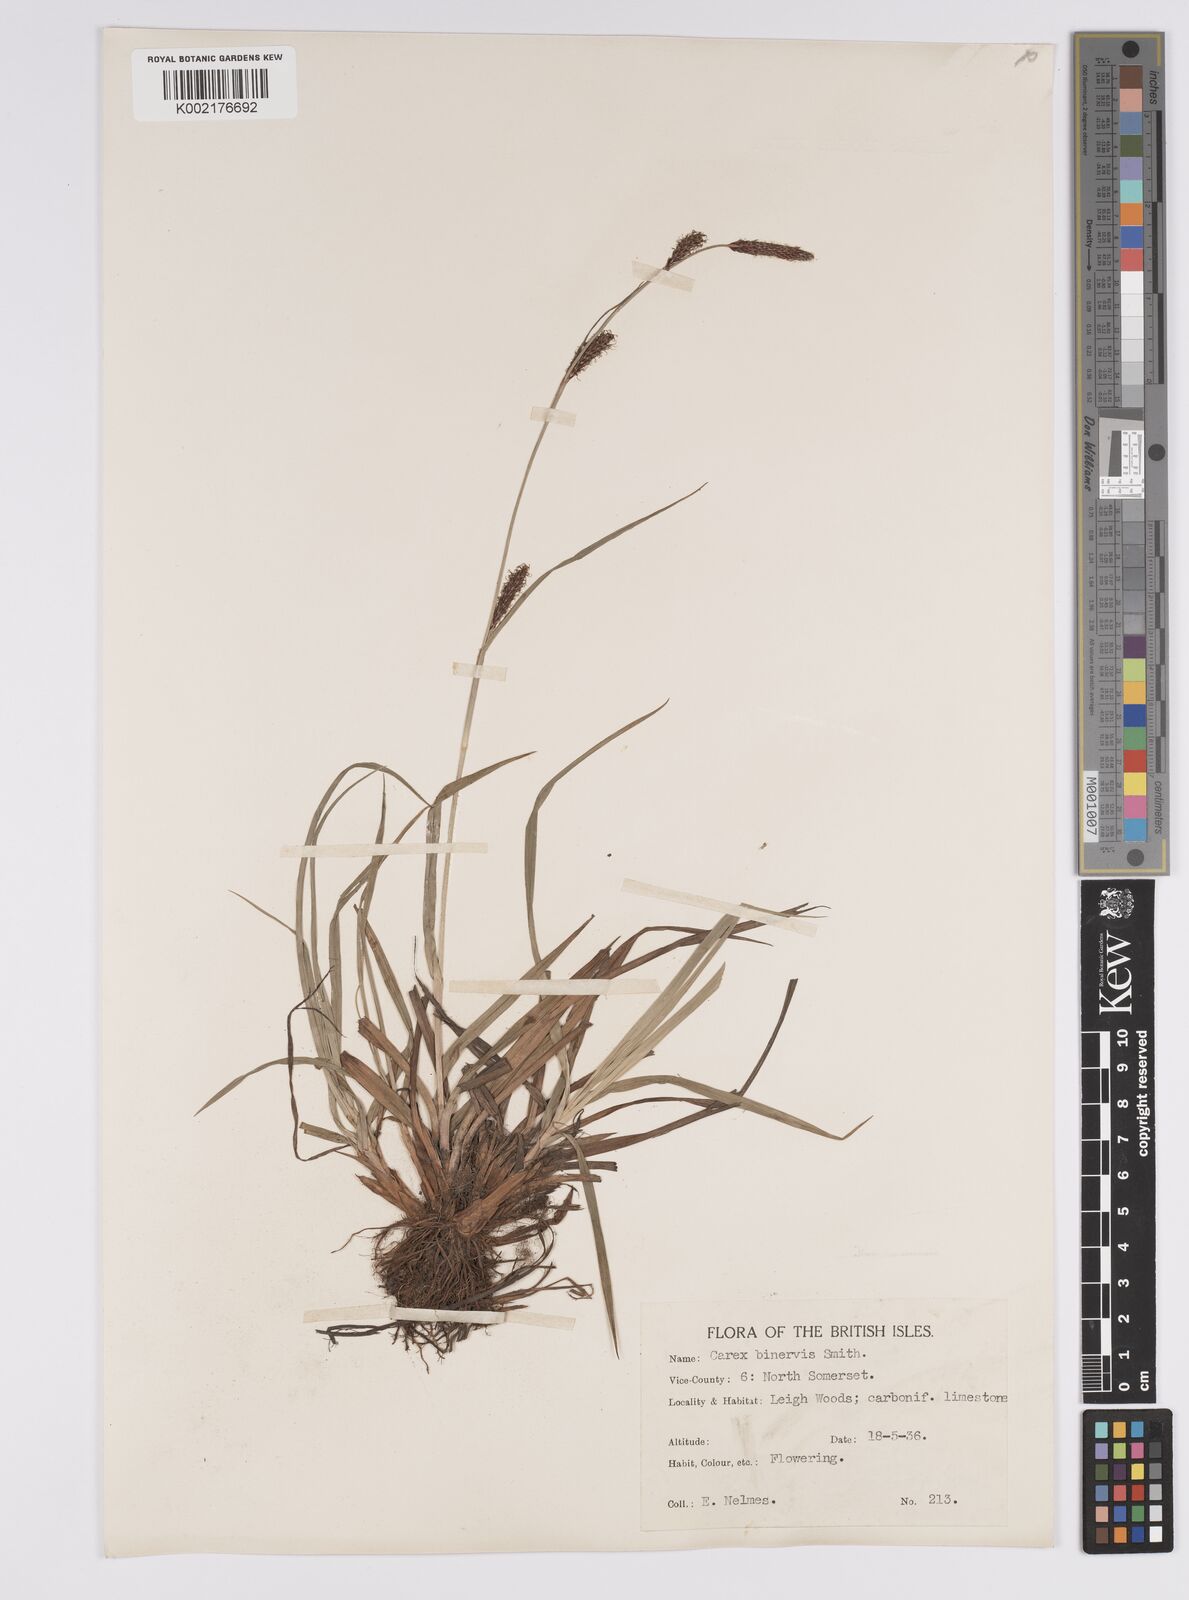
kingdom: Plantae
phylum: Tracheophyta
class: Liliopsida
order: Poales
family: Cyperaceae
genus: Carex
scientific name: Carex binervis
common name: Green-ribbed sedge
